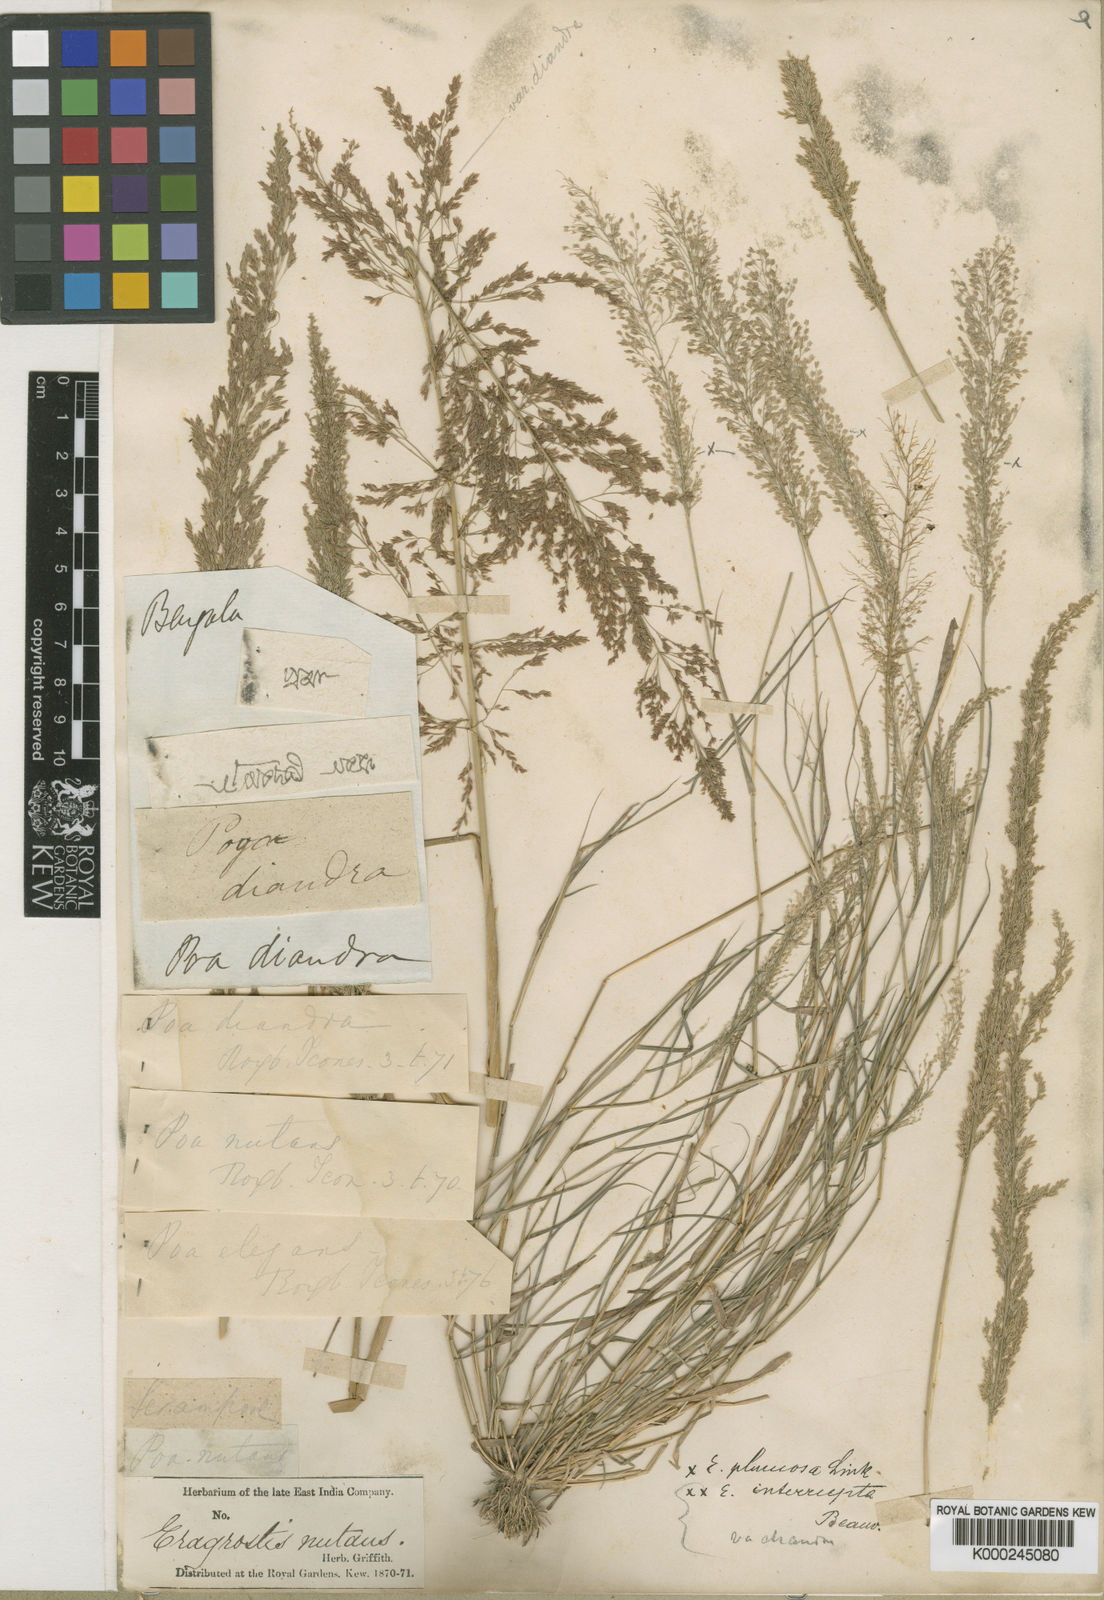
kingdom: Plantae
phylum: Tracheophyta
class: Liliopsida
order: Poales
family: Poaceae
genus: Eragrostis
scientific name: Eragrostis japonica
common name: Pond lovegrass
